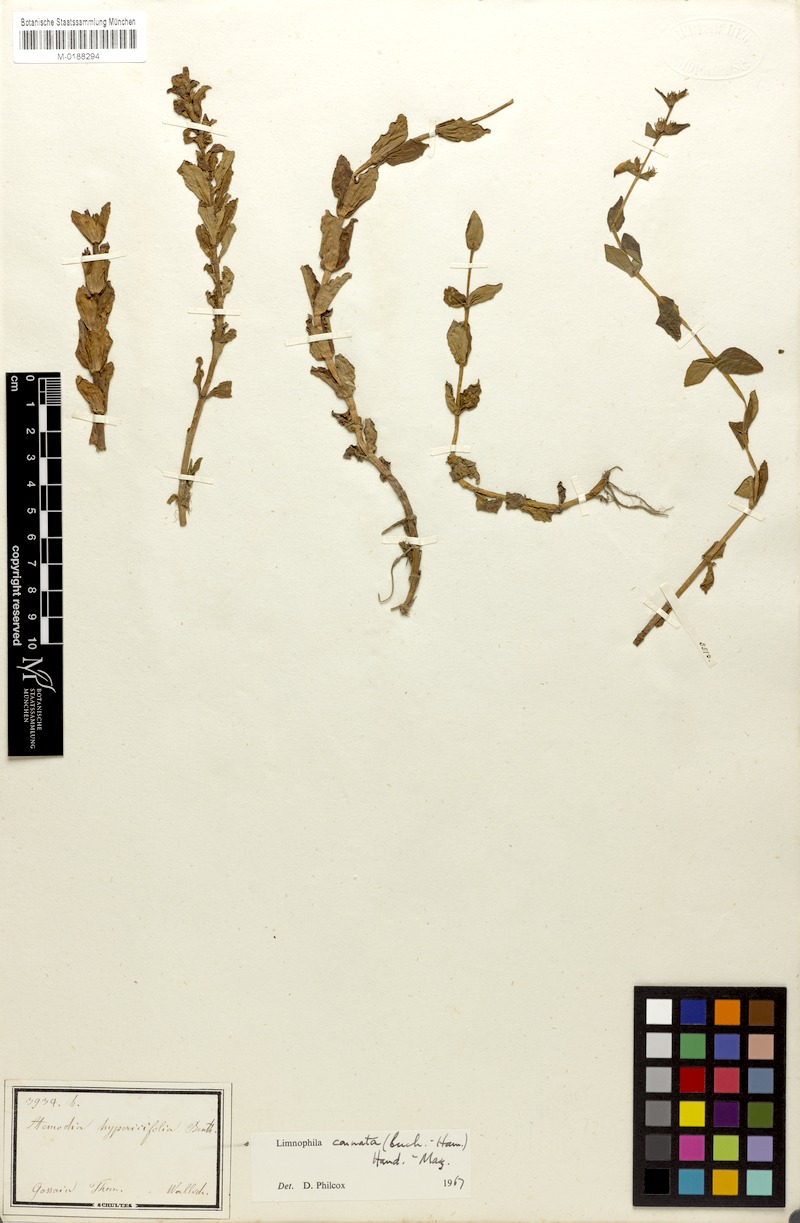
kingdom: Plantae
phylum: Tracheophyta
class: Magnoliopsida
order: Lamiales
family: Plantaginaceae
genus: Limnophila
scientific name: Limnophila connata
